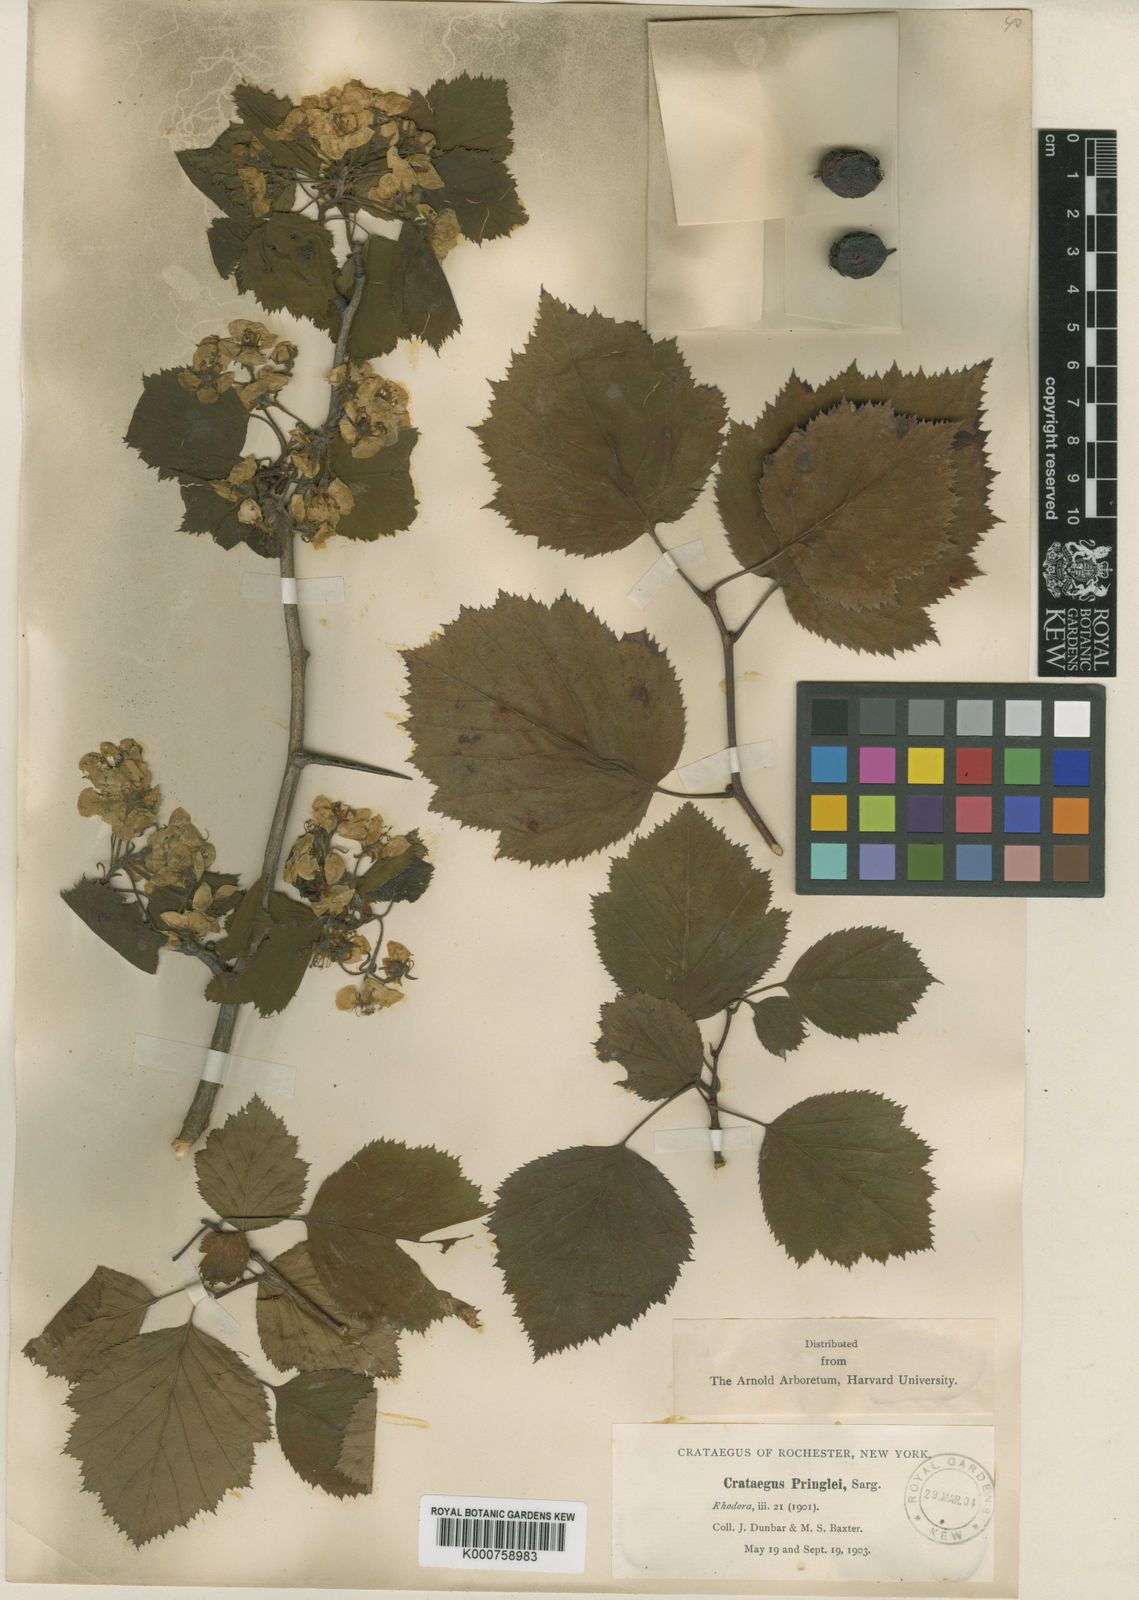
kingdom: Plantae
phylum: Tracheophyta
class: Magnoliopsida
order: Rosales
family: Rosaceae
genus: Crataegus
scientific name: Crataegus coccinea
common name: Scarlet hawthorn
